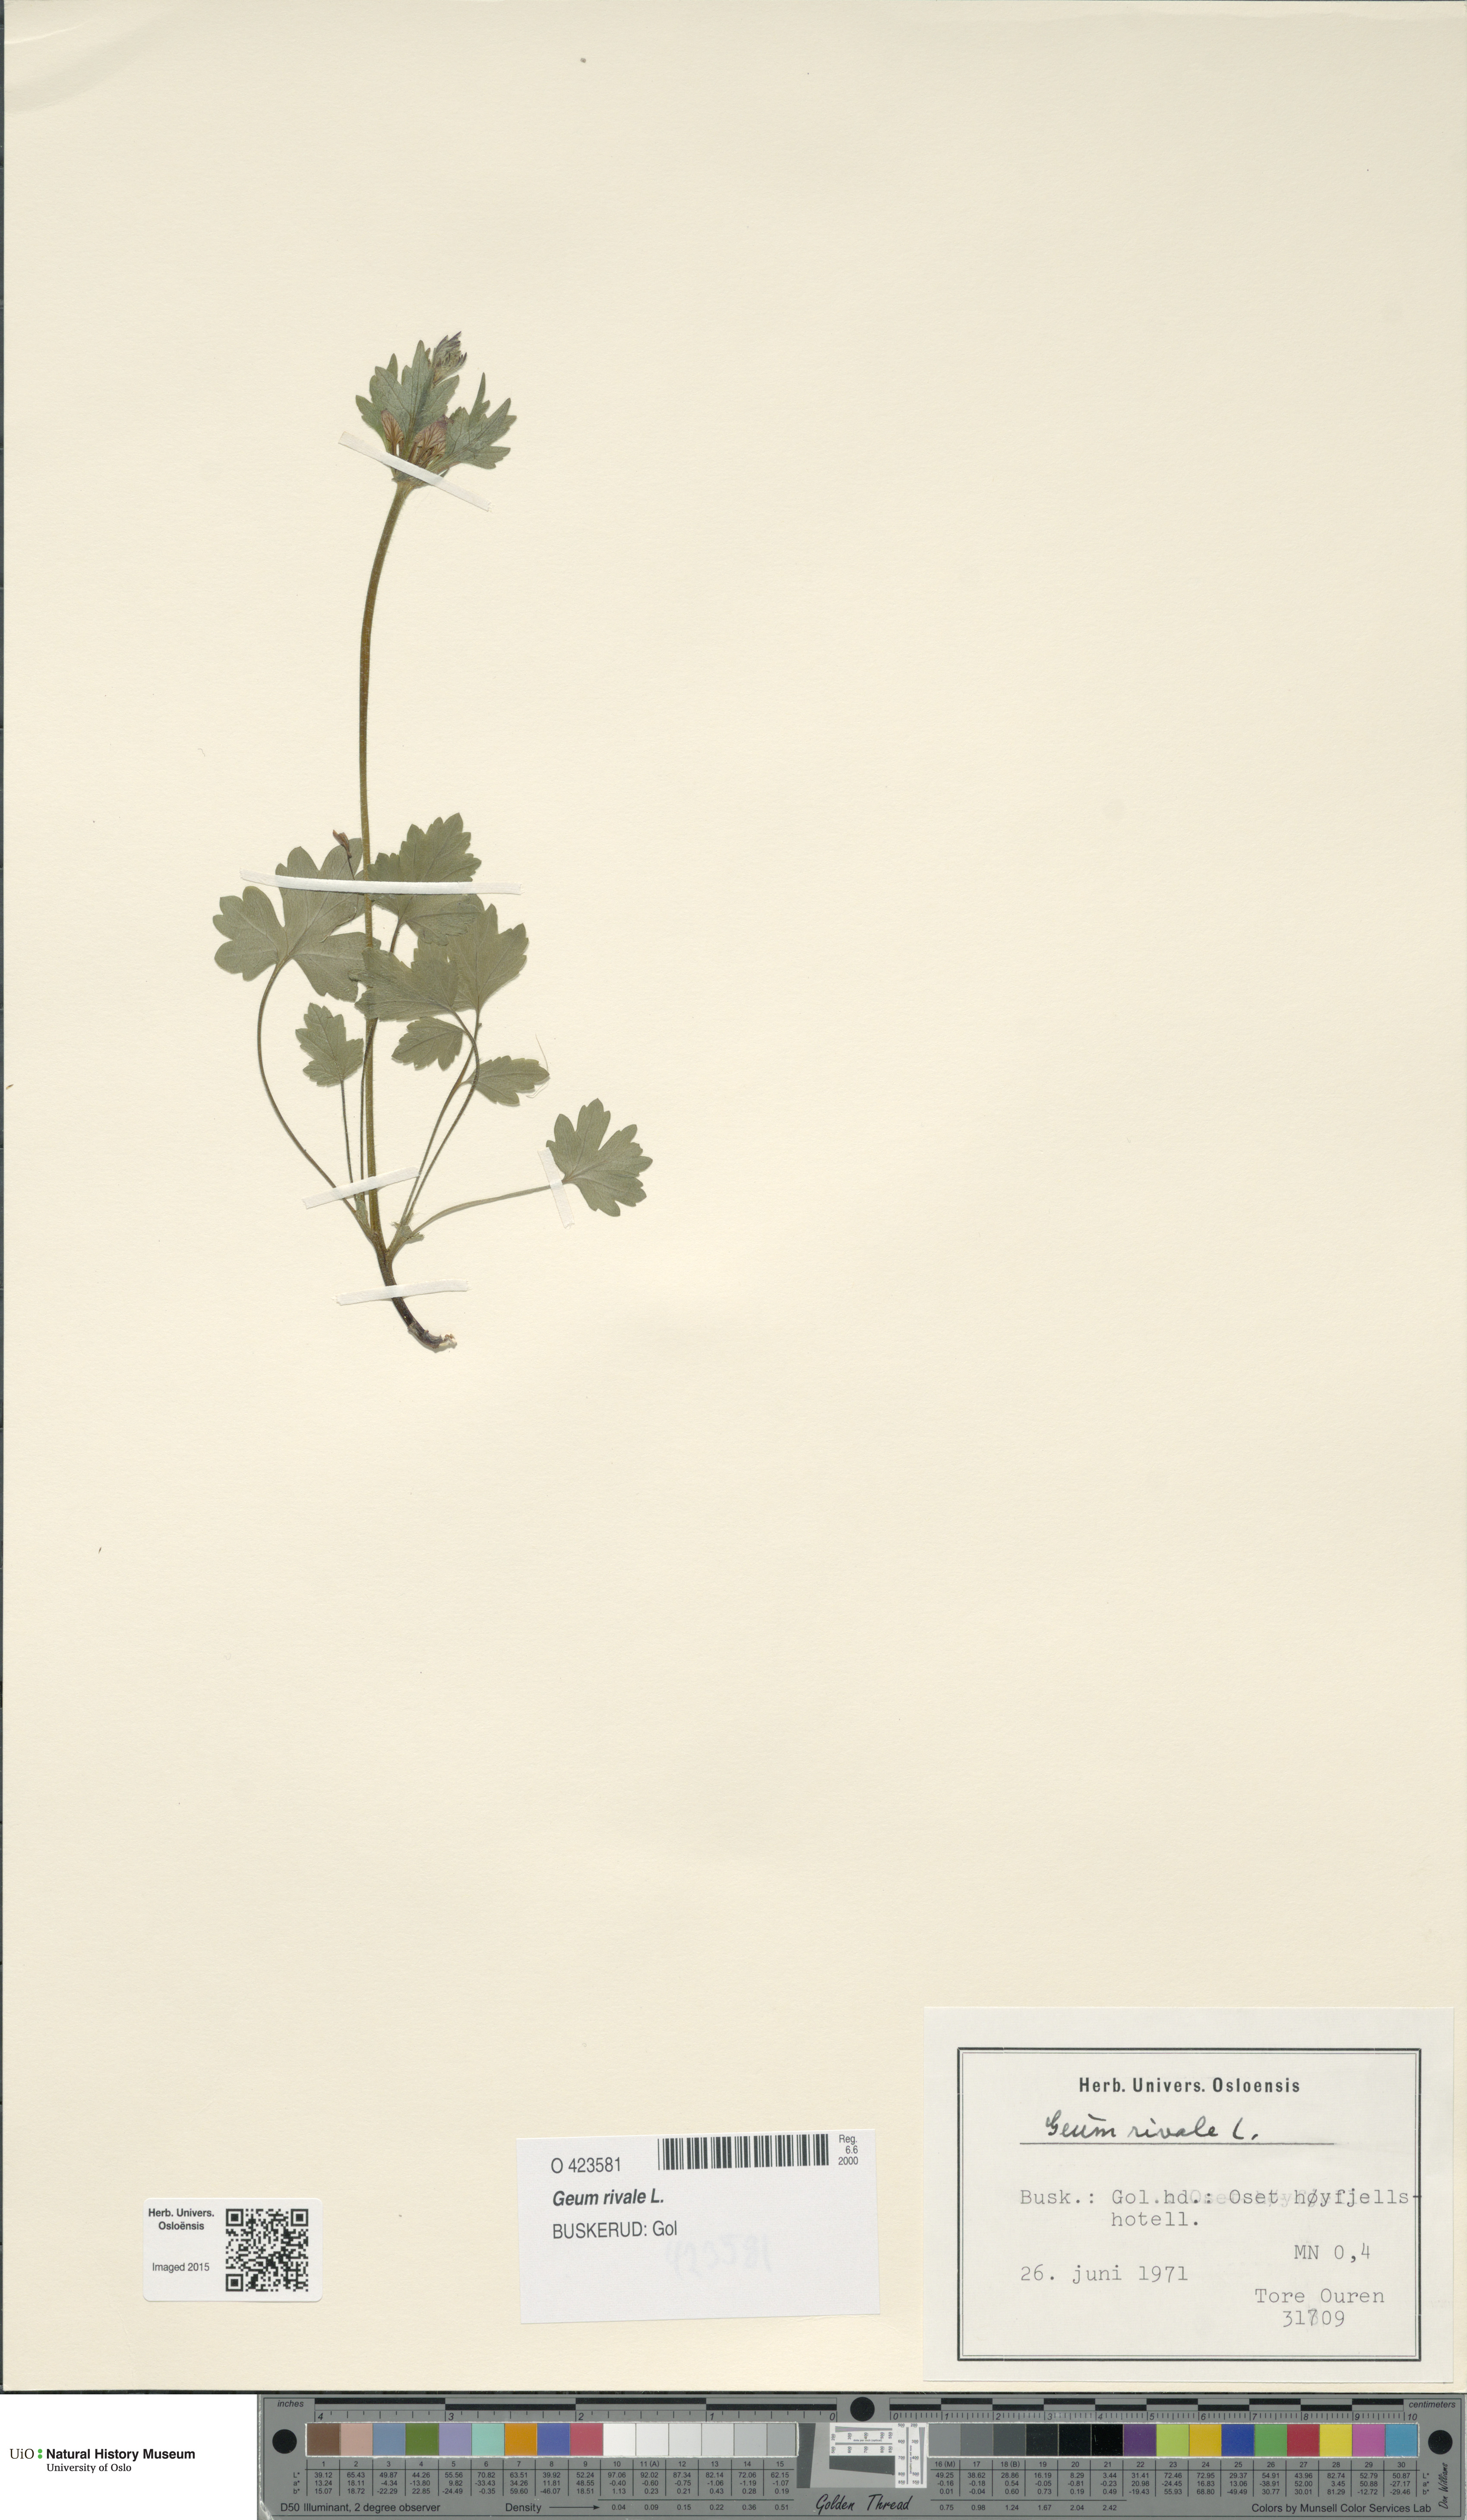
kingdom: Plantae
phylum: Tracheophyta
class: Magnoliopsida
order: Rosales
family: Rosaceae
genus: Geum
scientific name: Geum rivale
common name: Water avens
